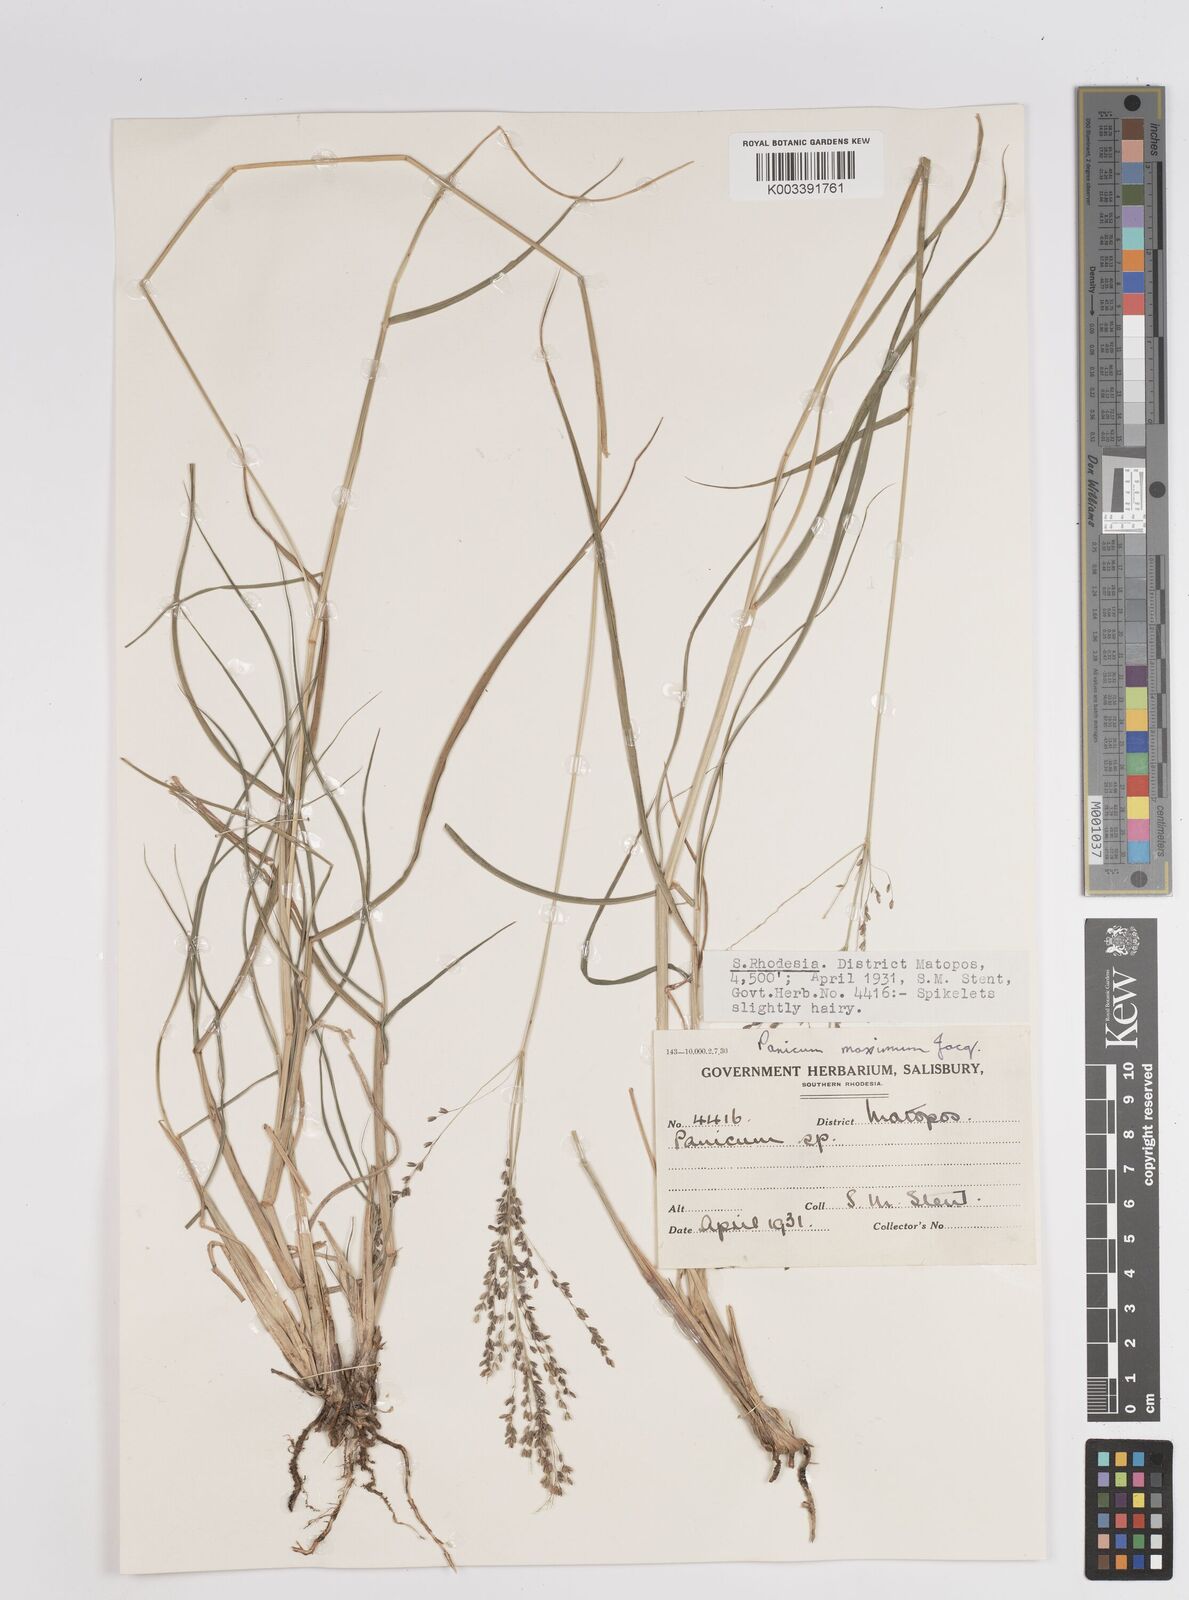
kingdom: Plantae
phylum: Tracheophyta
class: Liliopsida
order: Poales
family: Poaceae
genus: Megathyrsus
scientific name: Megathyrsus maximus
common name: Guineagrass
